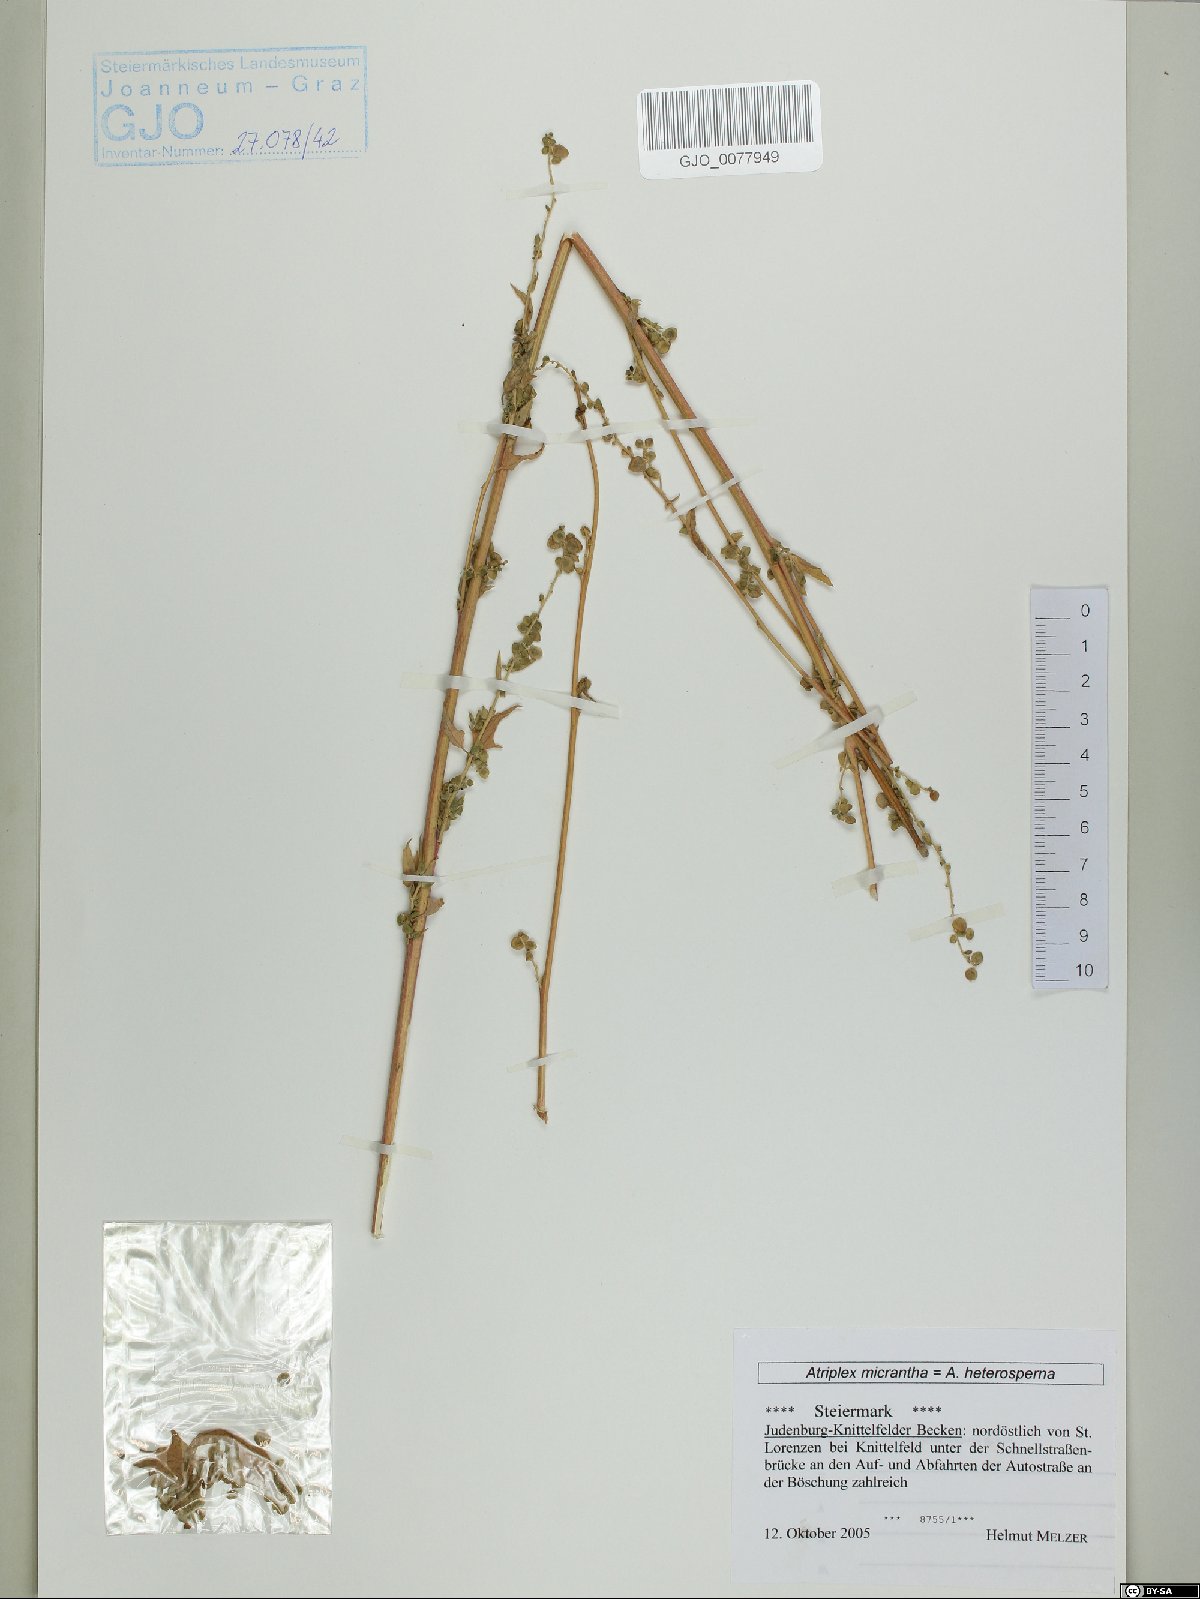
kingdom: Plantae
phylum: Tracheophyta
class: Magnoliopsida
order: Caryophyllales
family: Amaranthaceae
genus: Atriplex
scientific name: Atriplex micrantha
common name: Twoscale saltbush
